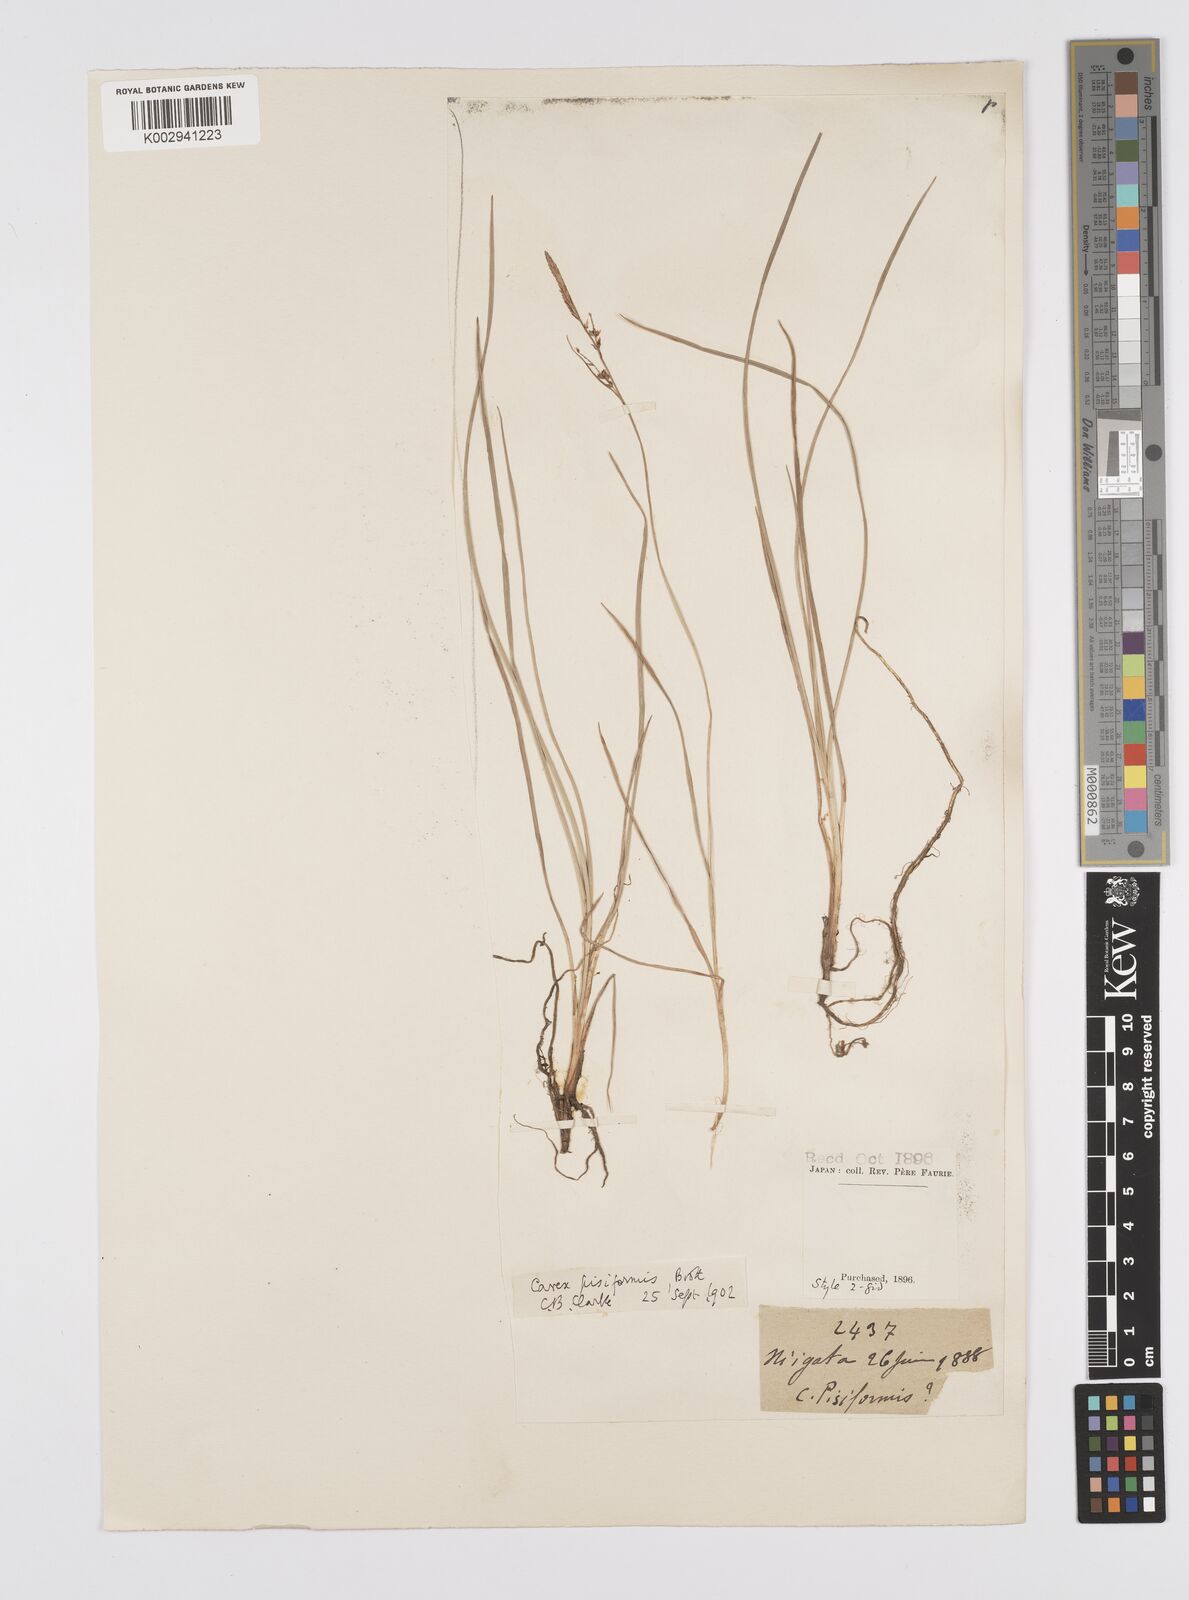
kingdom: Plantae
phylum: Tracheophyta
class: Liliopsida
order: Poales
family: Cyperaceae
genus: Carex
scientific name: Carex pisiformis
